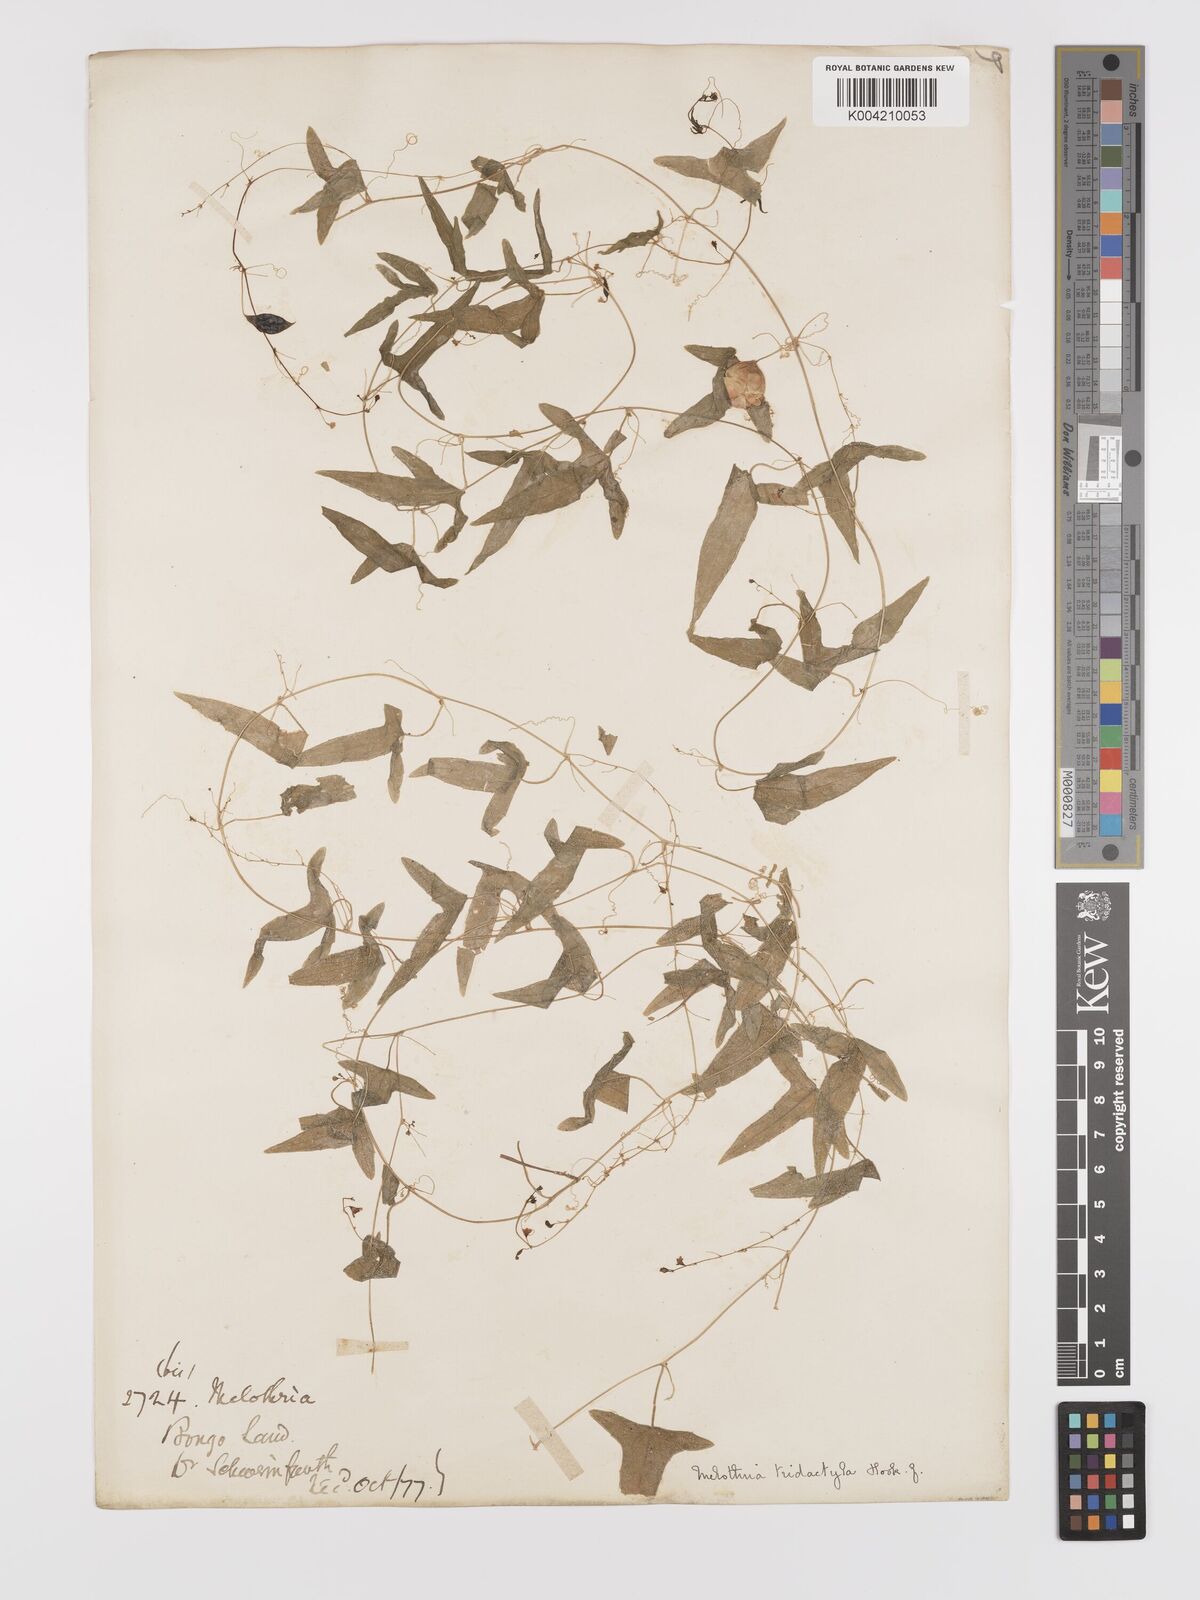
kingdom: Plantae
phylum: Tracheophyta
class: Magnoliopsida
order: Cucurbitales
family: Cucurbitaceae
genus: Zehneria
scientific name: Zehneria thwaitesii
